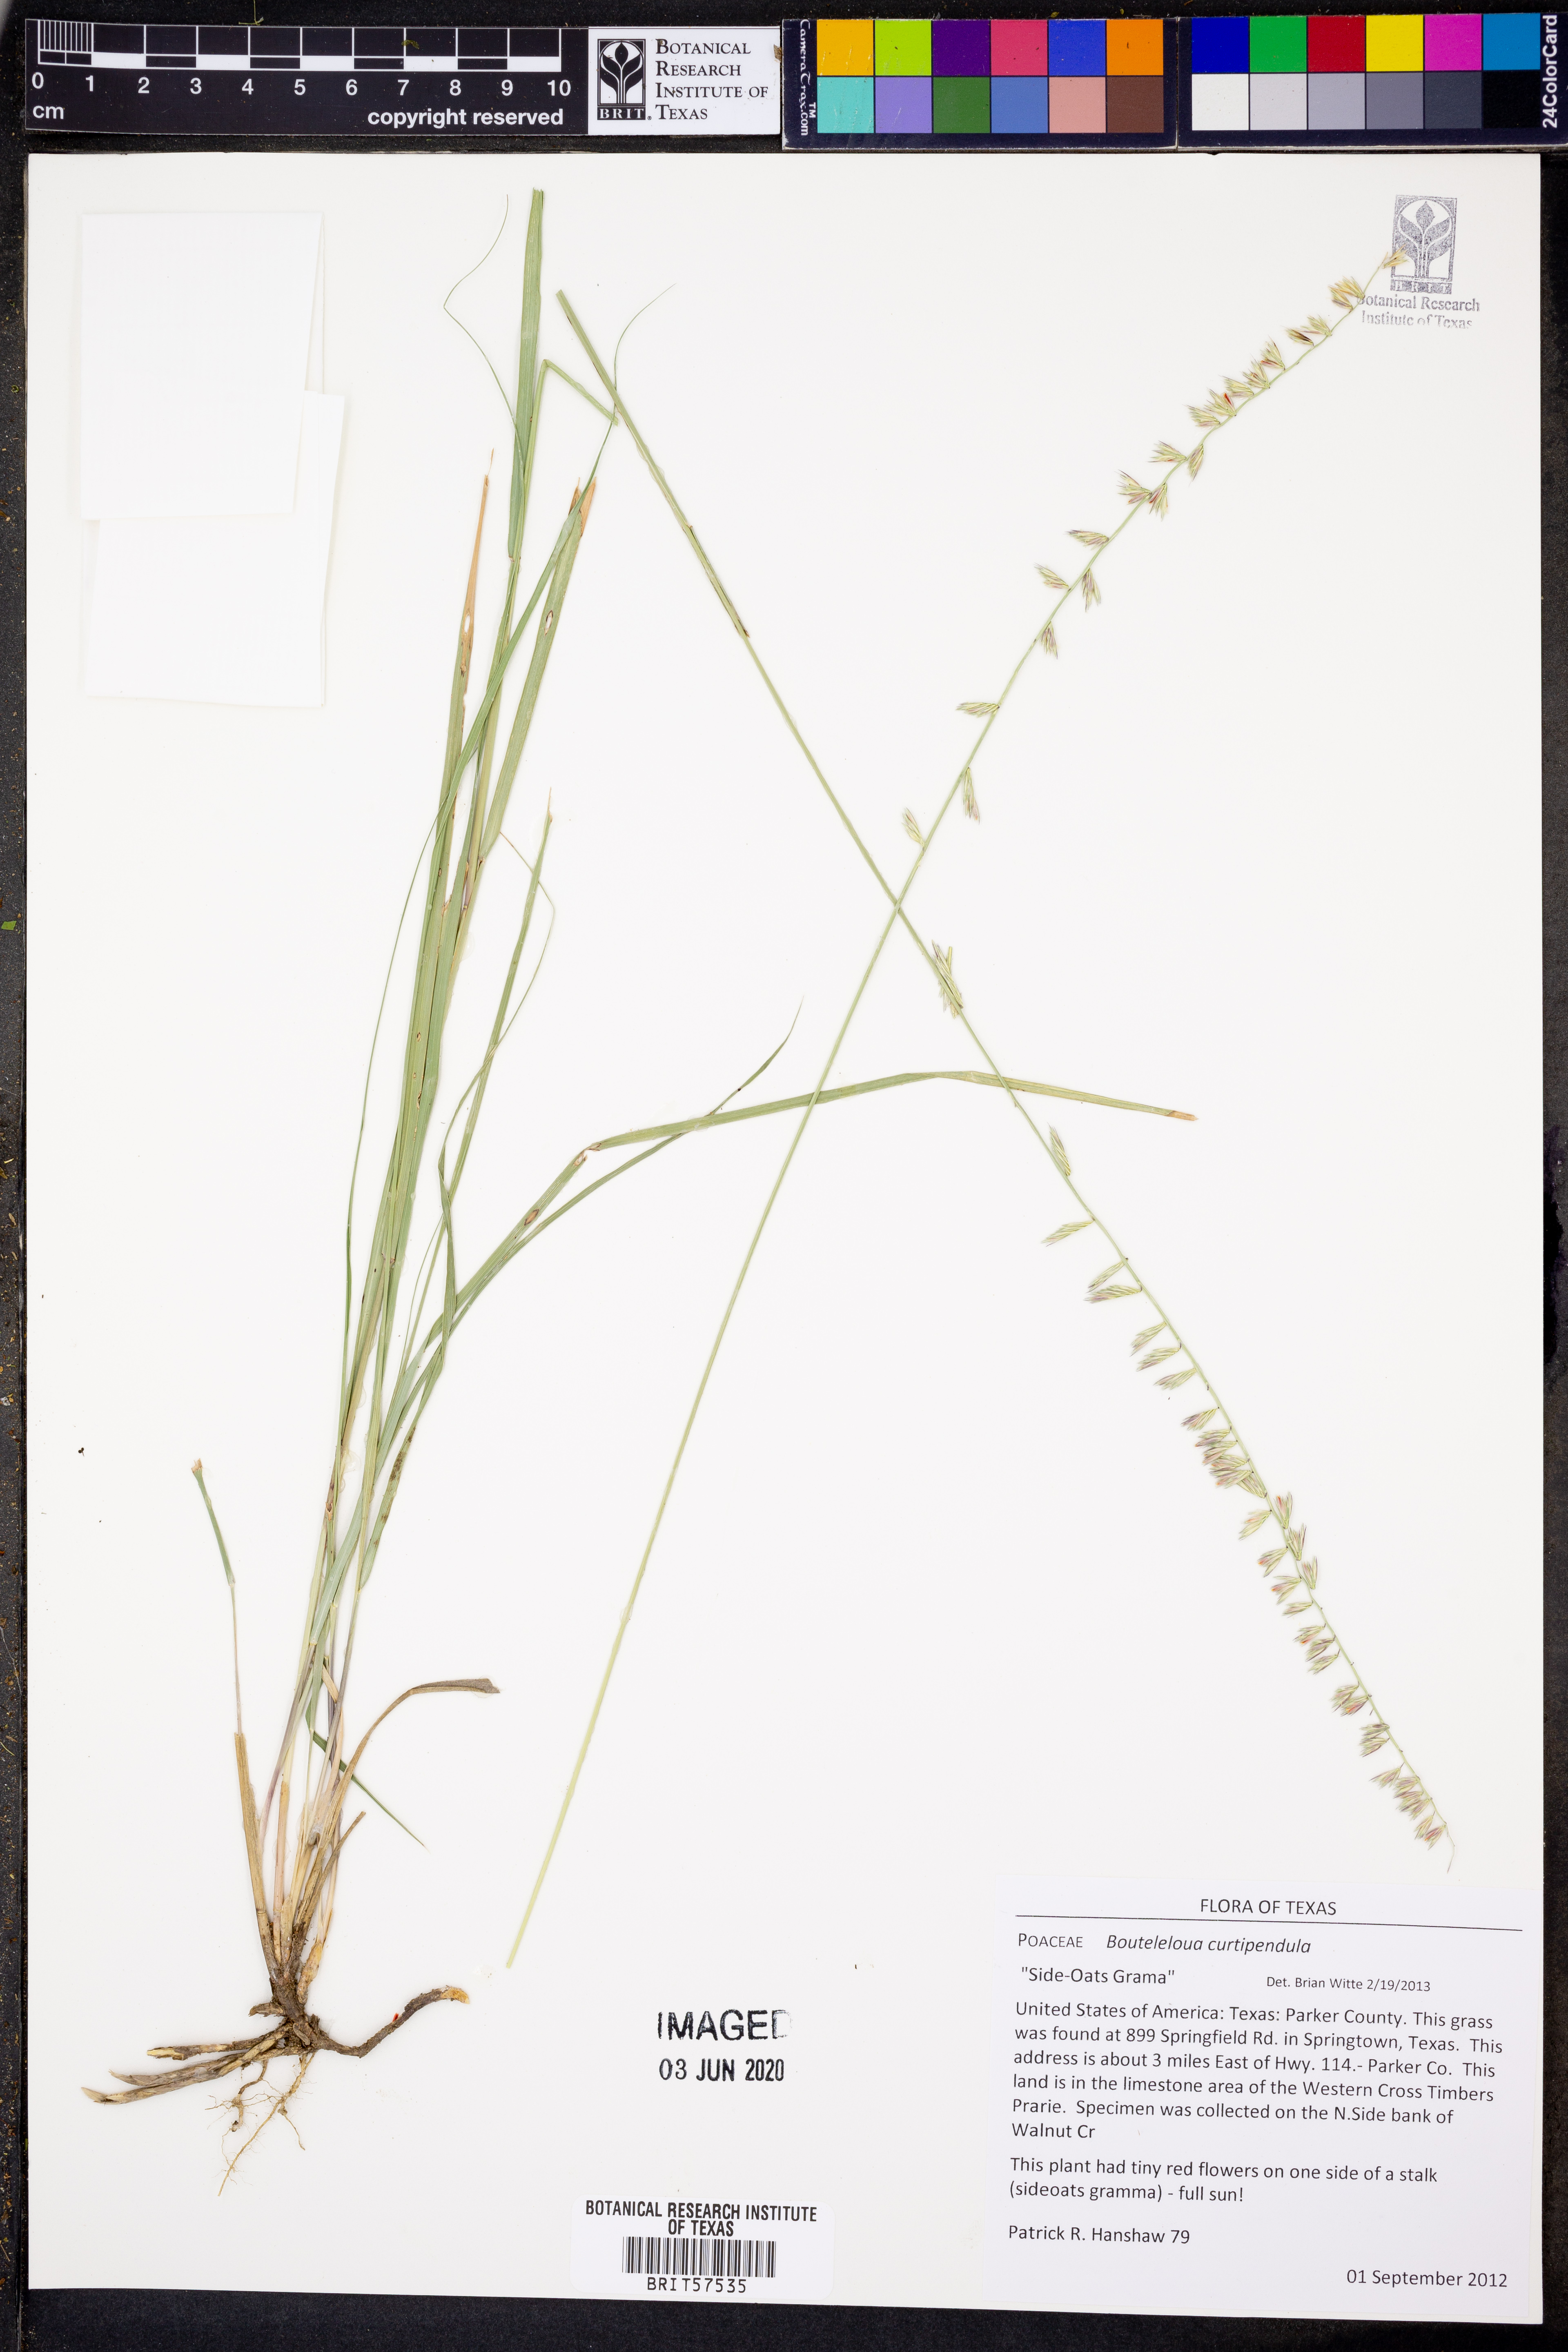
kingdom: Plantae
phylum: Tracheophyta
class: Liliopsida
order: Poales
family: Poaceae
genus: Bouteloua
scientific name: Bouteloua curtipendula
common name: Side-oats grama
